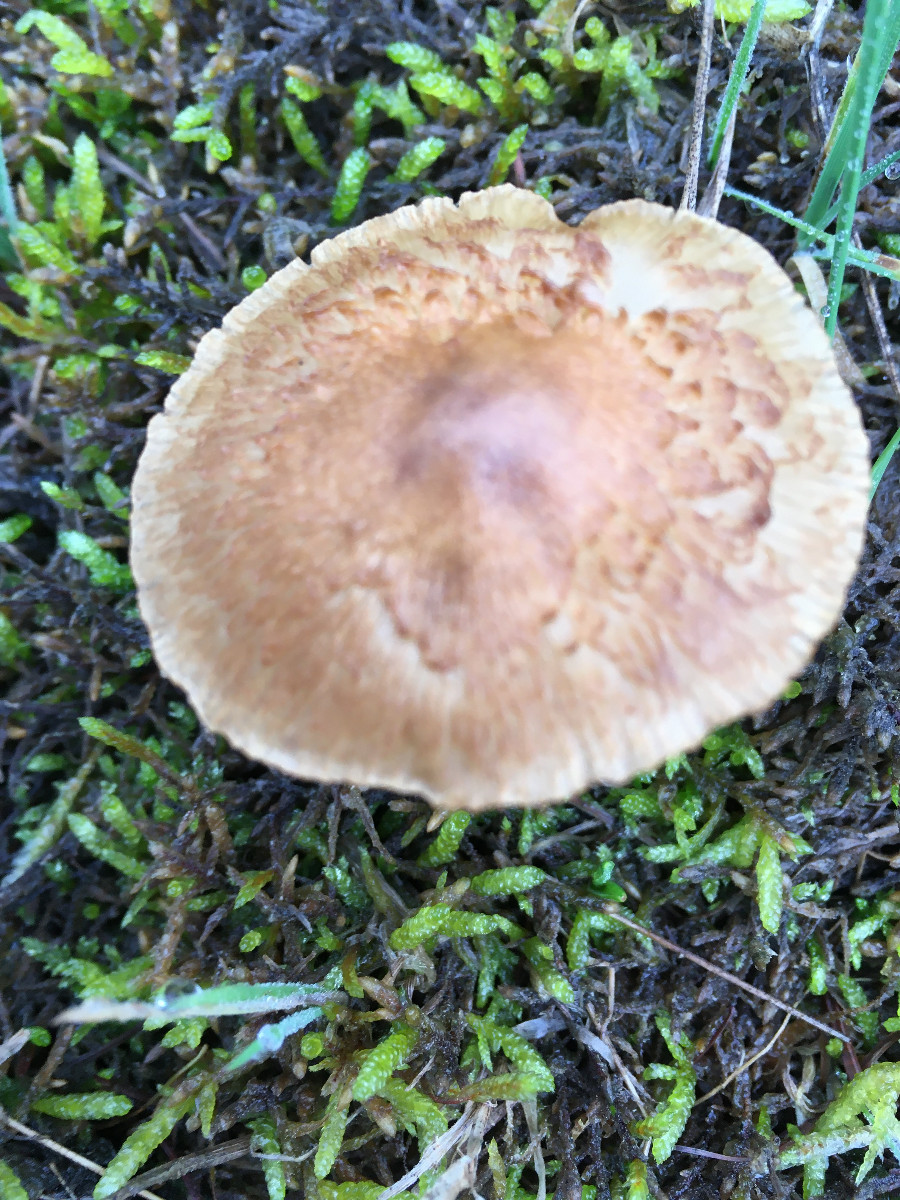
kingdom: Fungi
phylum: Basidiomycota
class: Agaricomycetes
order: Agaricales
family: Inocybaceae
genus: Inocybe
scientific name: Inocybe
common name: trævlhat
